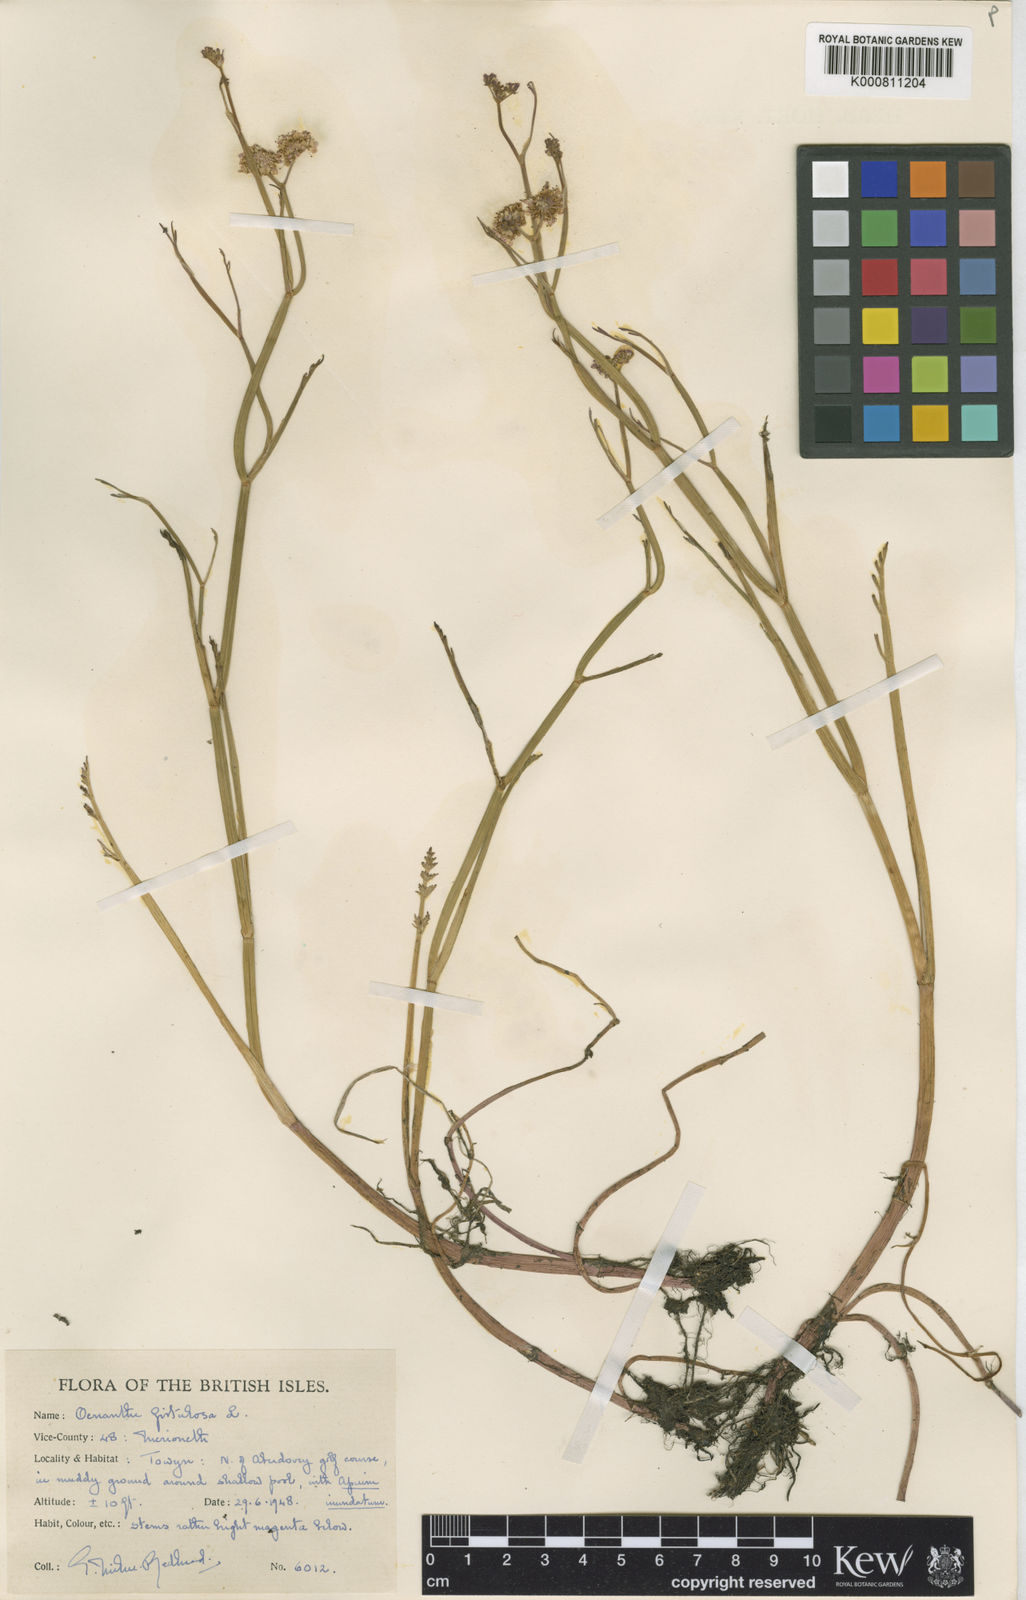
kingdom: Plantae
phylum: Tracheophyta
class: Magnoliopsida
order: Apiales
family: Apiaceae
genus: Oenanthe
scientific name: Oenanthe fistulosa
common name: Tubular water-dropwort
